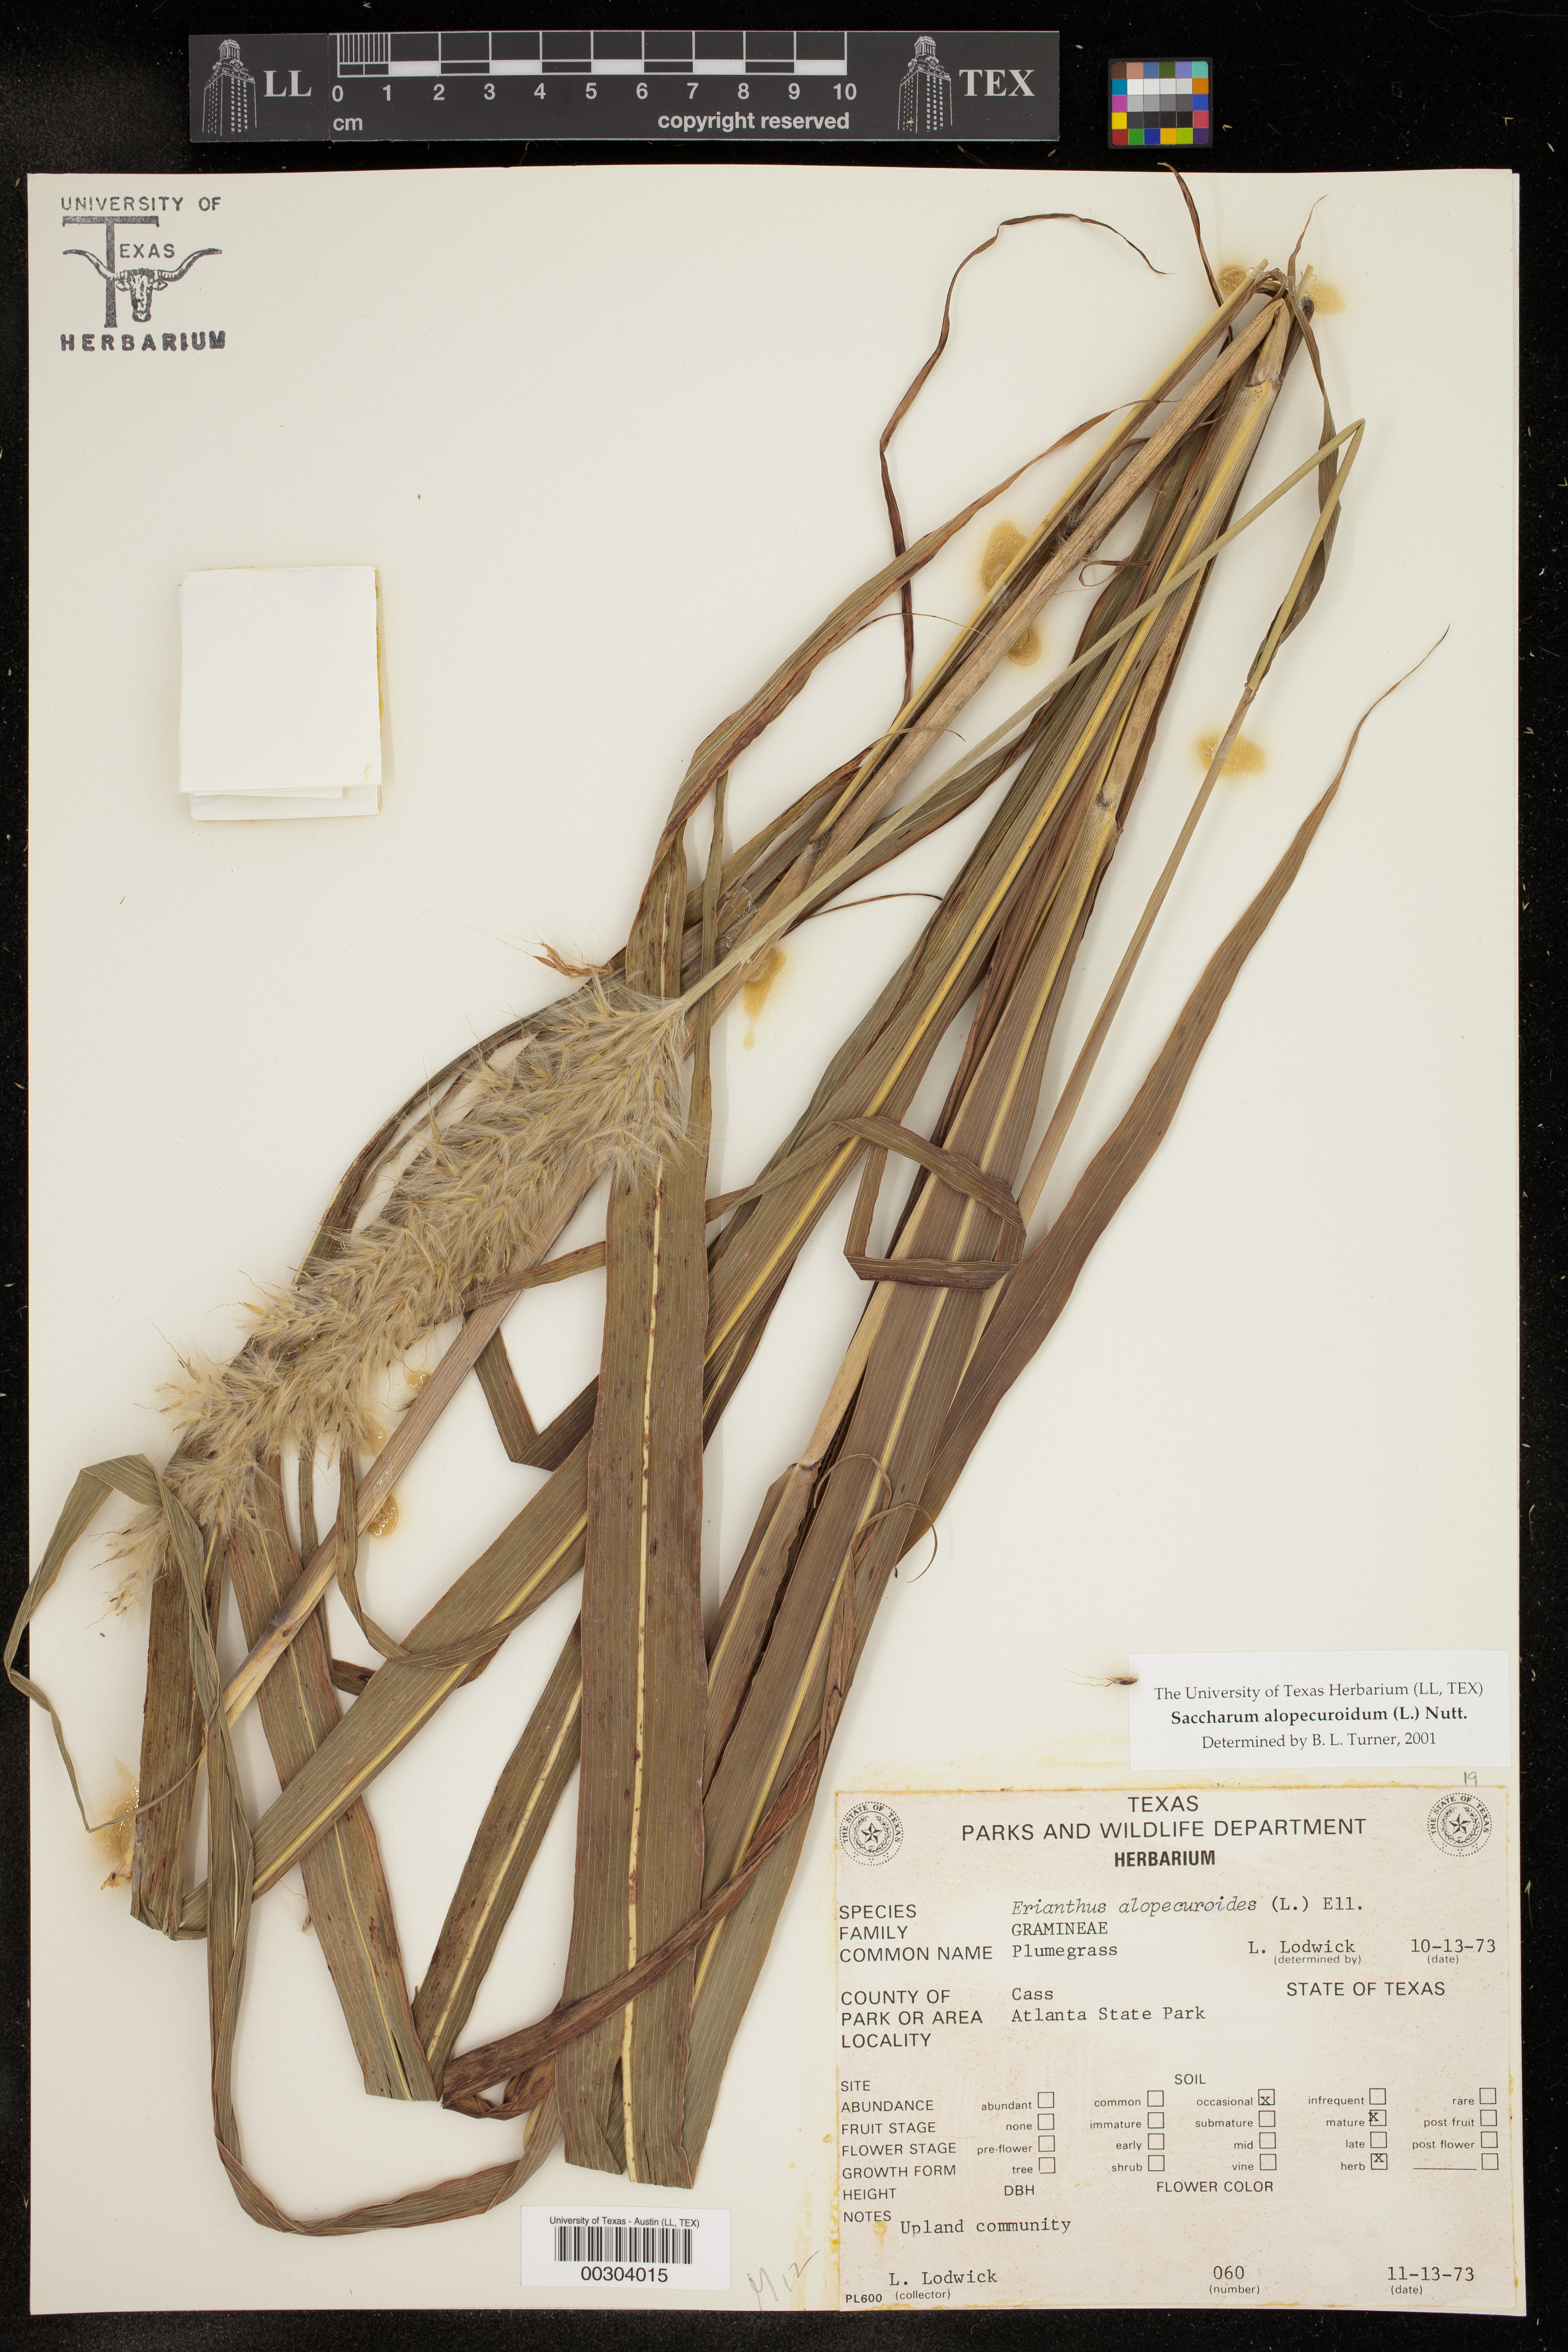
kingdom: Plantae
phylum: Tracheophyta
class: Liliopsida
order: Poales
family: Poaceae
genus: Erianthus
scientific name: Erianthus alopecuroides
